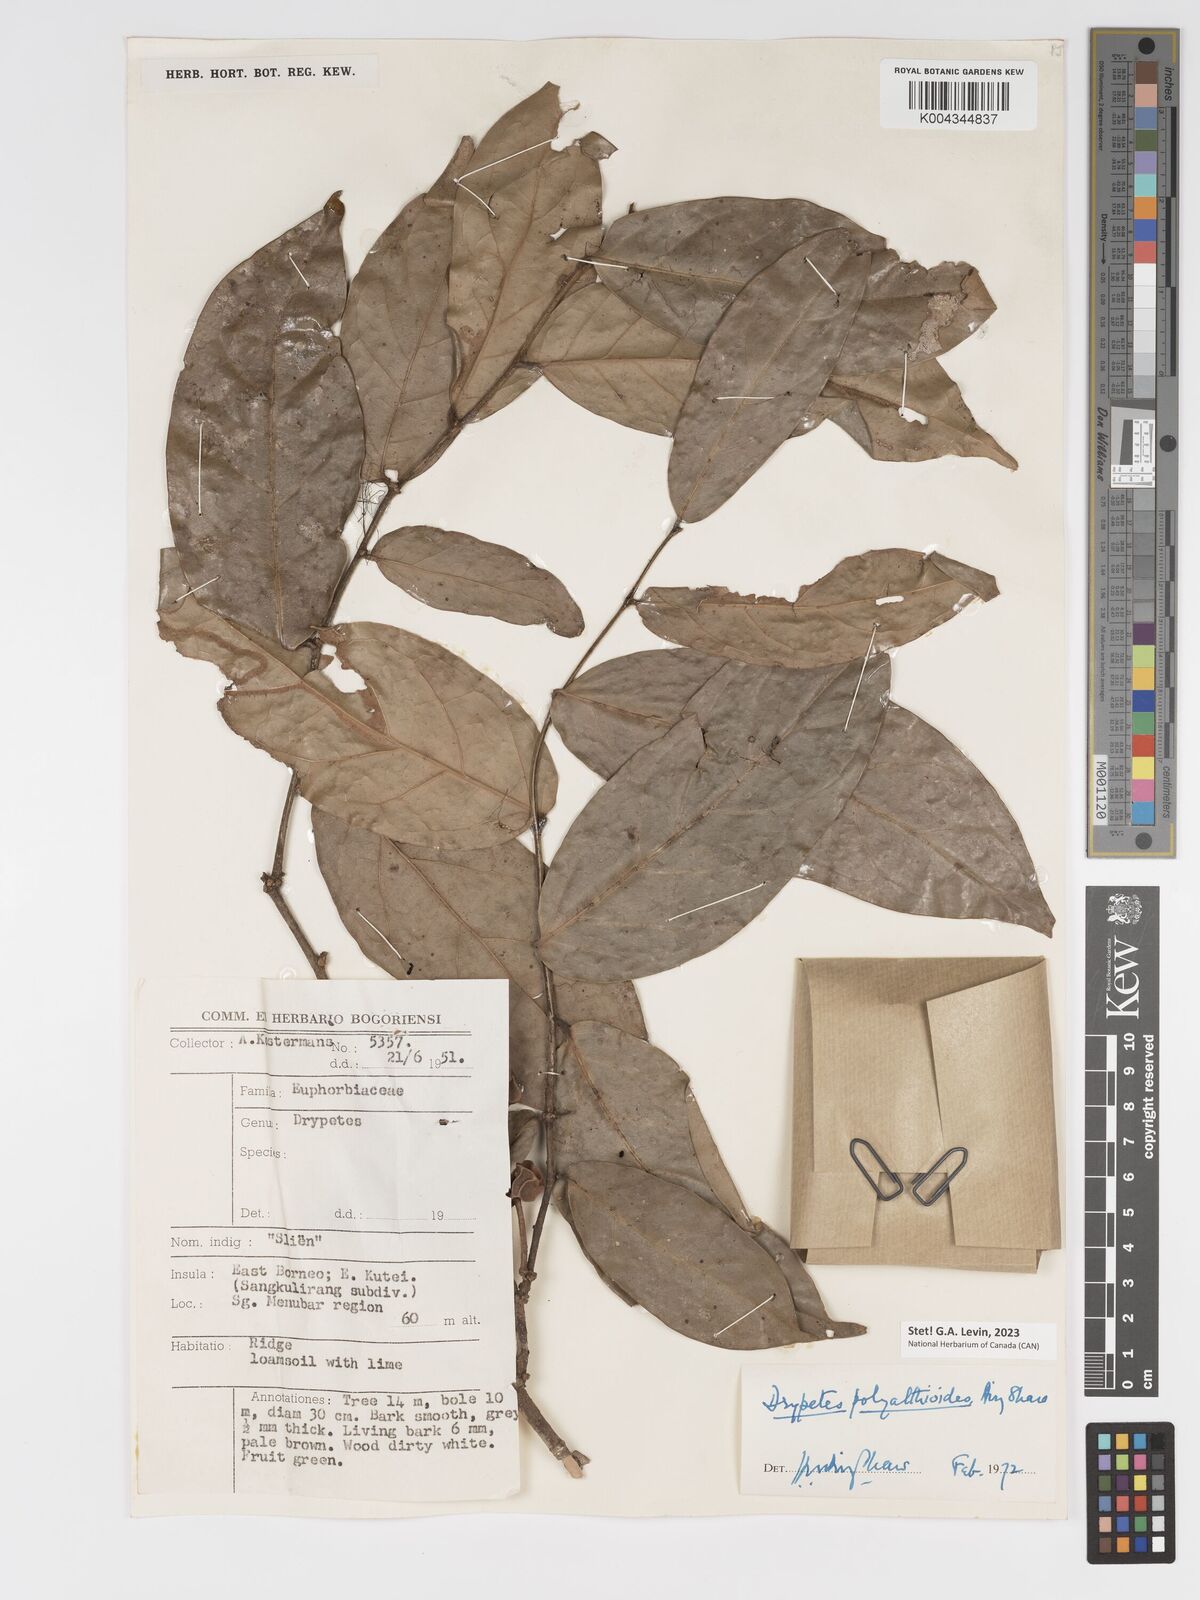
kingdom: Plantae
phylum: Tracheophyta
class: Magnoliopsida
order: Malpighiales
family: Putranjivaceae
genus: Drypetes
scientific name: Drypetes polyalthioides
